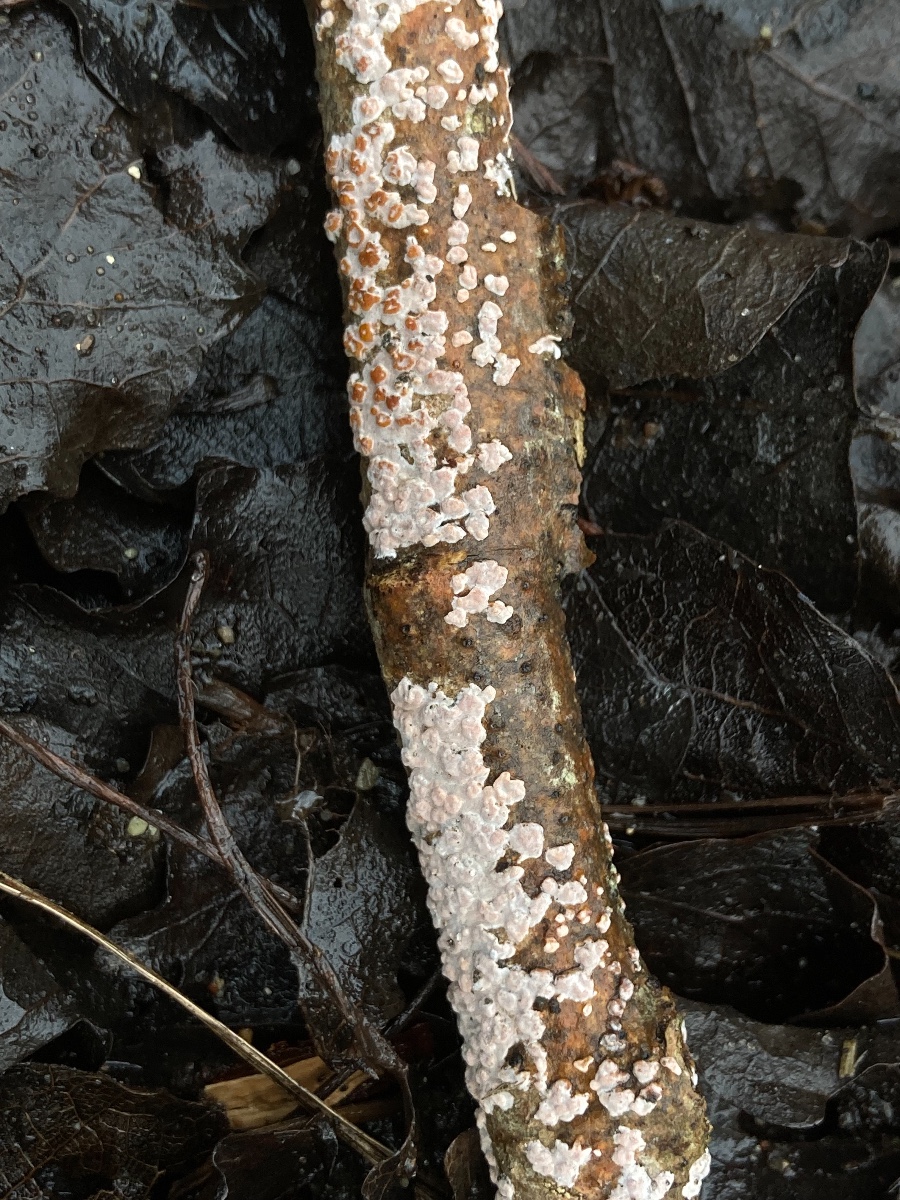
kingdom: Fungi
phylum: Basidiomycota
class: Agaricomycetes
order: Russulales
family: Peniophoraceae
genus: Peniophora
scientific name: Peniophora polygonia
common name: polygon-voksskind
